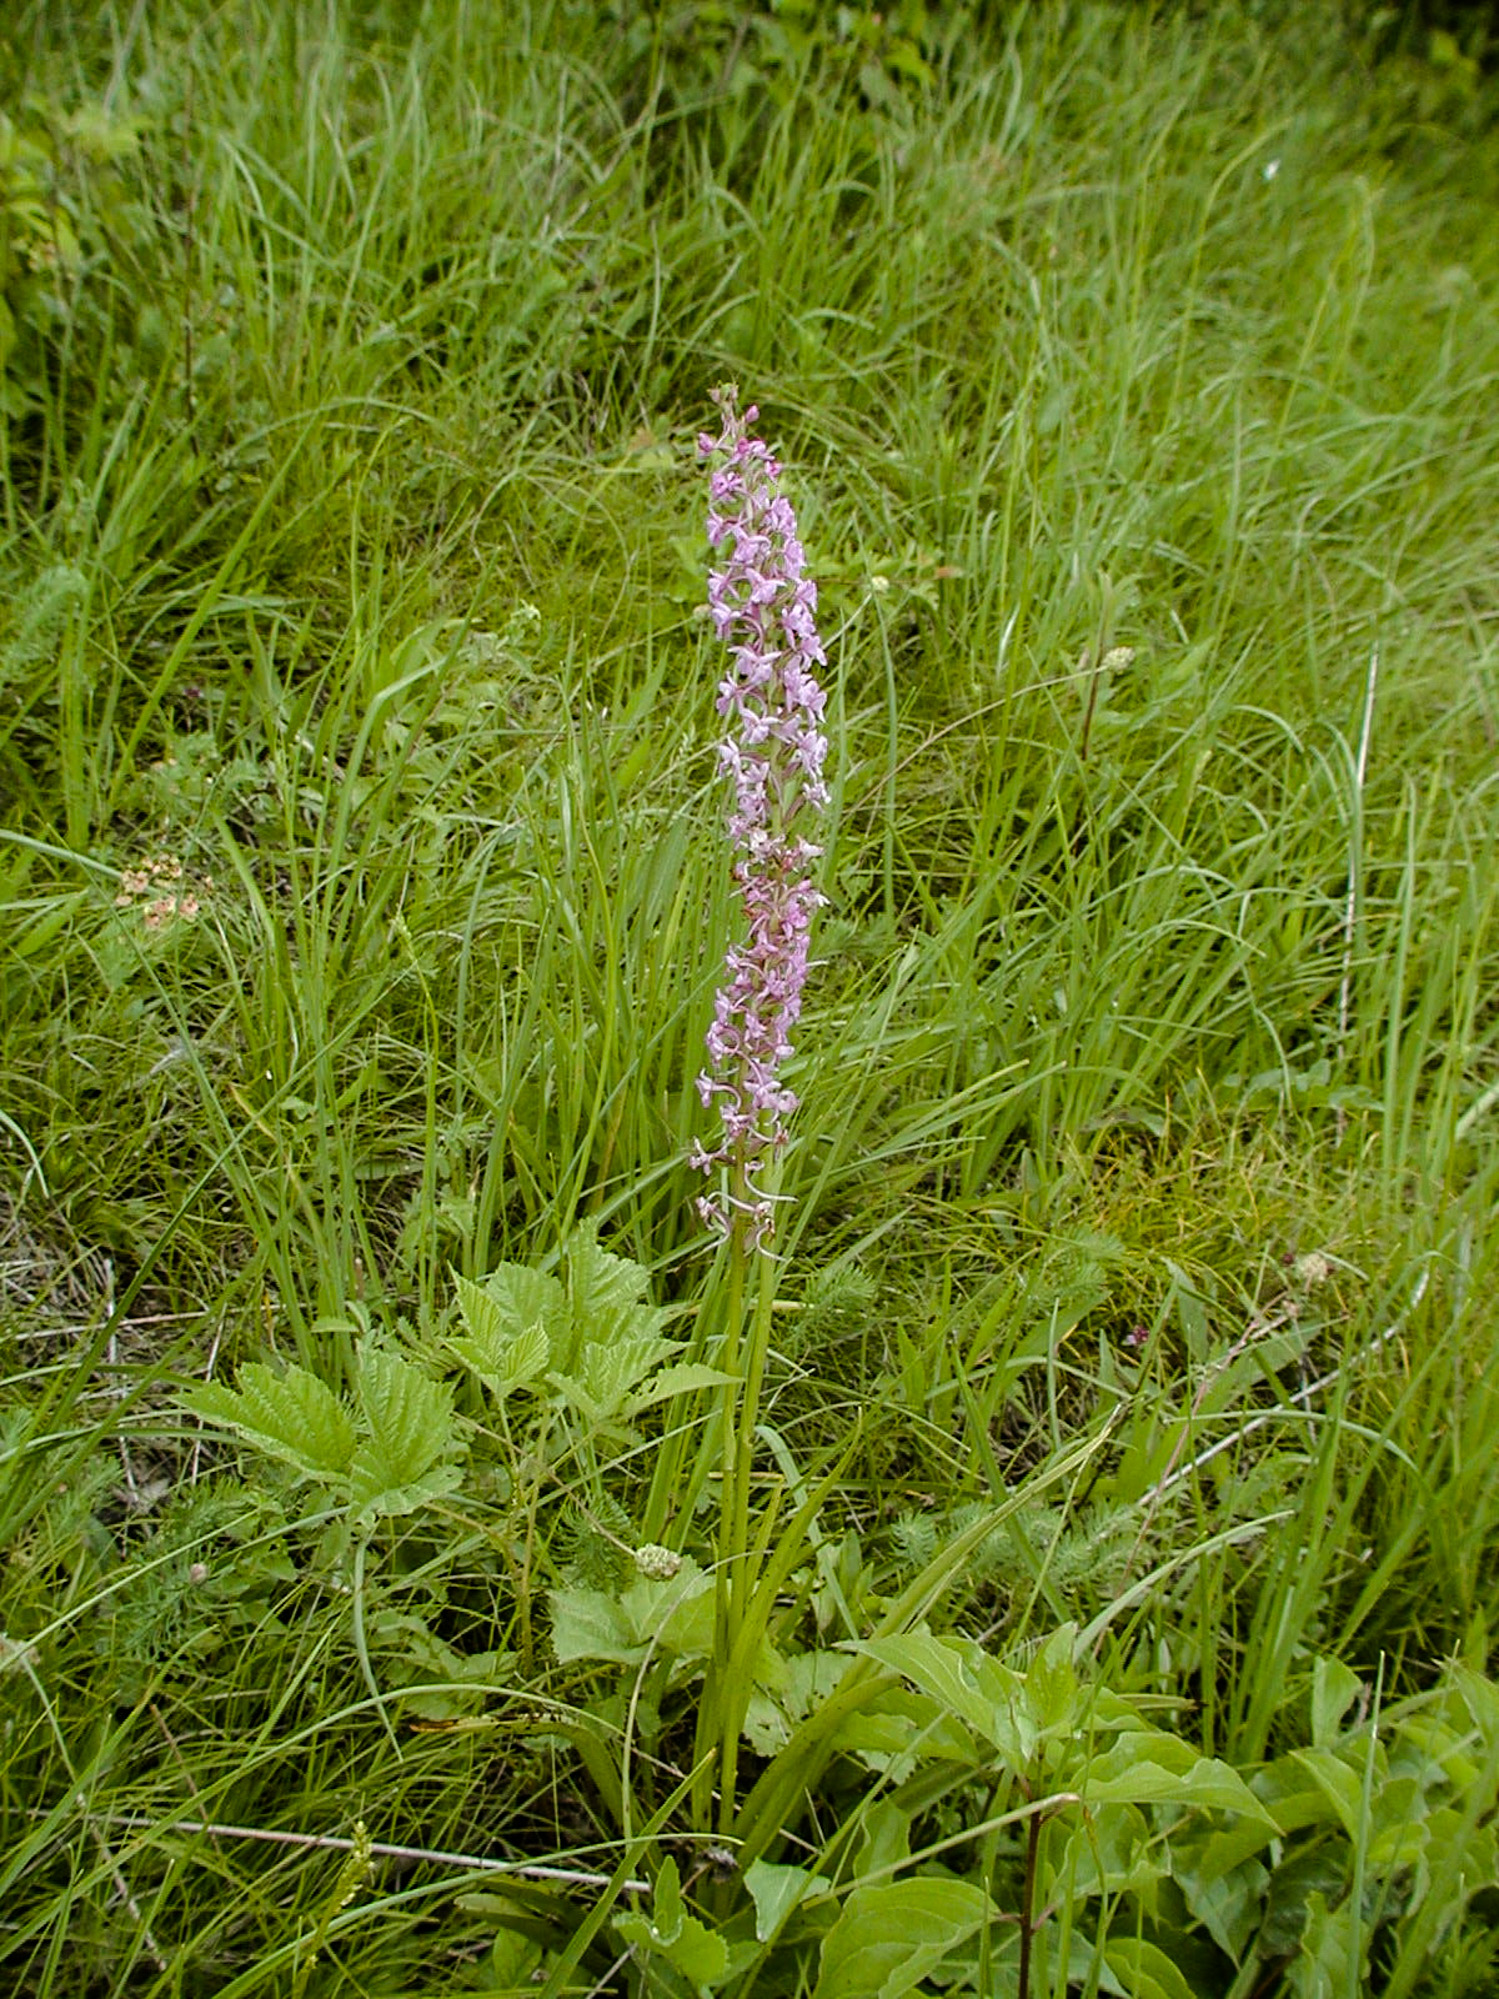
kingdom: Plantae
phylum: Tracheophyta
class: Liliopsida
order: Asparagales
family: Orchidaceae
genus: Gymnadenia
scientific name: Gymnadenia conopsea
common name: Fragrant orchid
